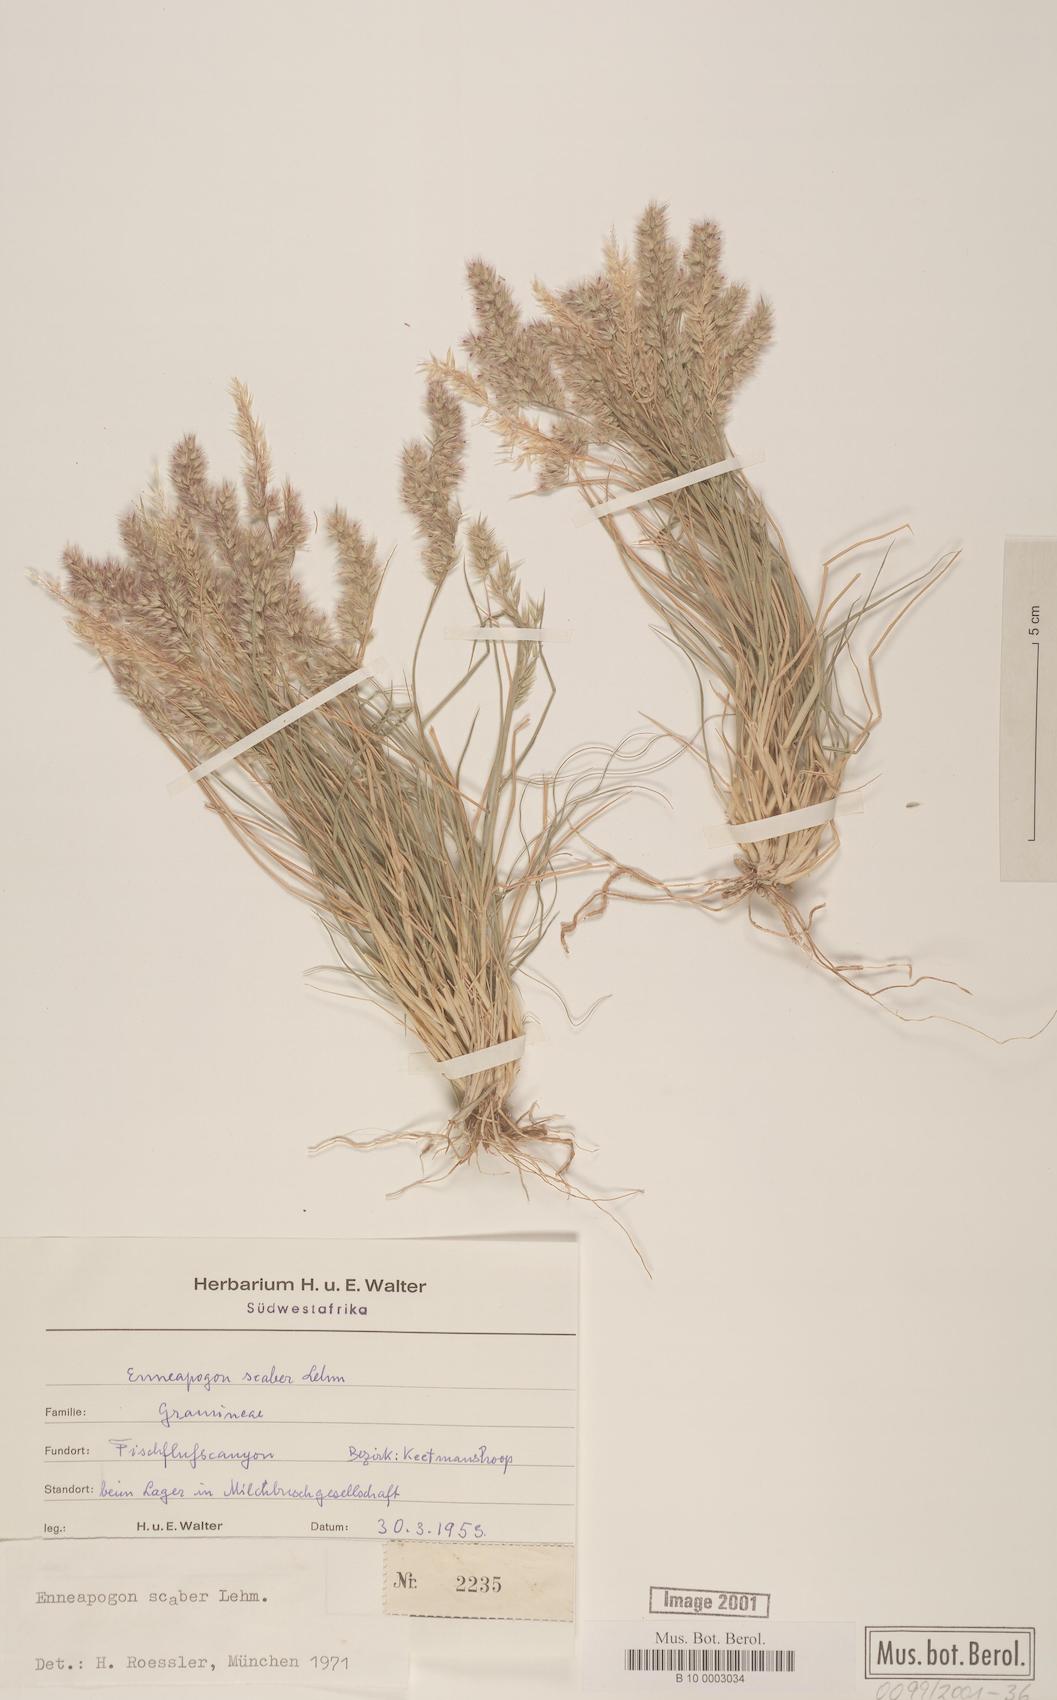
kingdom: Plantae
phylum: Tracheophyta
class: Liliopsida
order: Poales
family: Poaceae
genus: Enneapogon
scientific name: Enneapogon scaber
